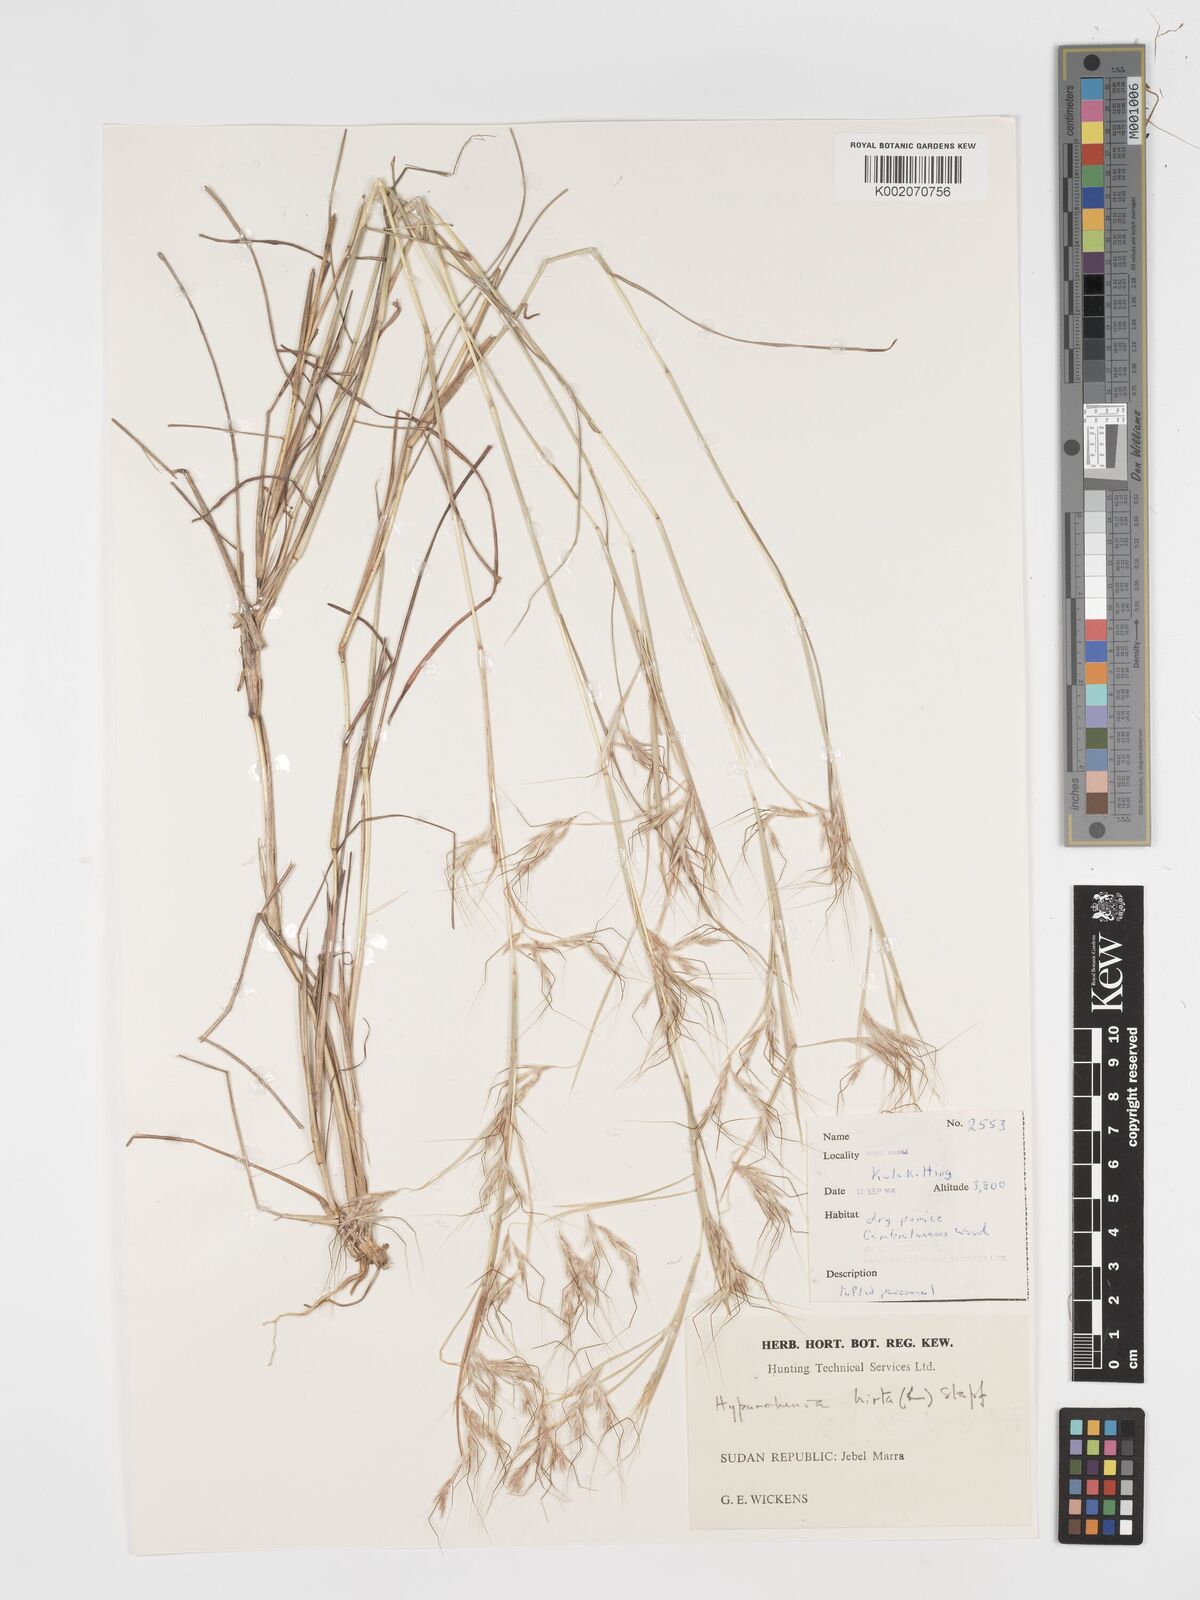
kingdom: Plantae
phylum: Tracheophyta
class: Liliopsida
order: Poales
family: Poaceae
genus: Hyparrhenia
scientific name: Hyparrhenia hirta
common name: Thatching grass
